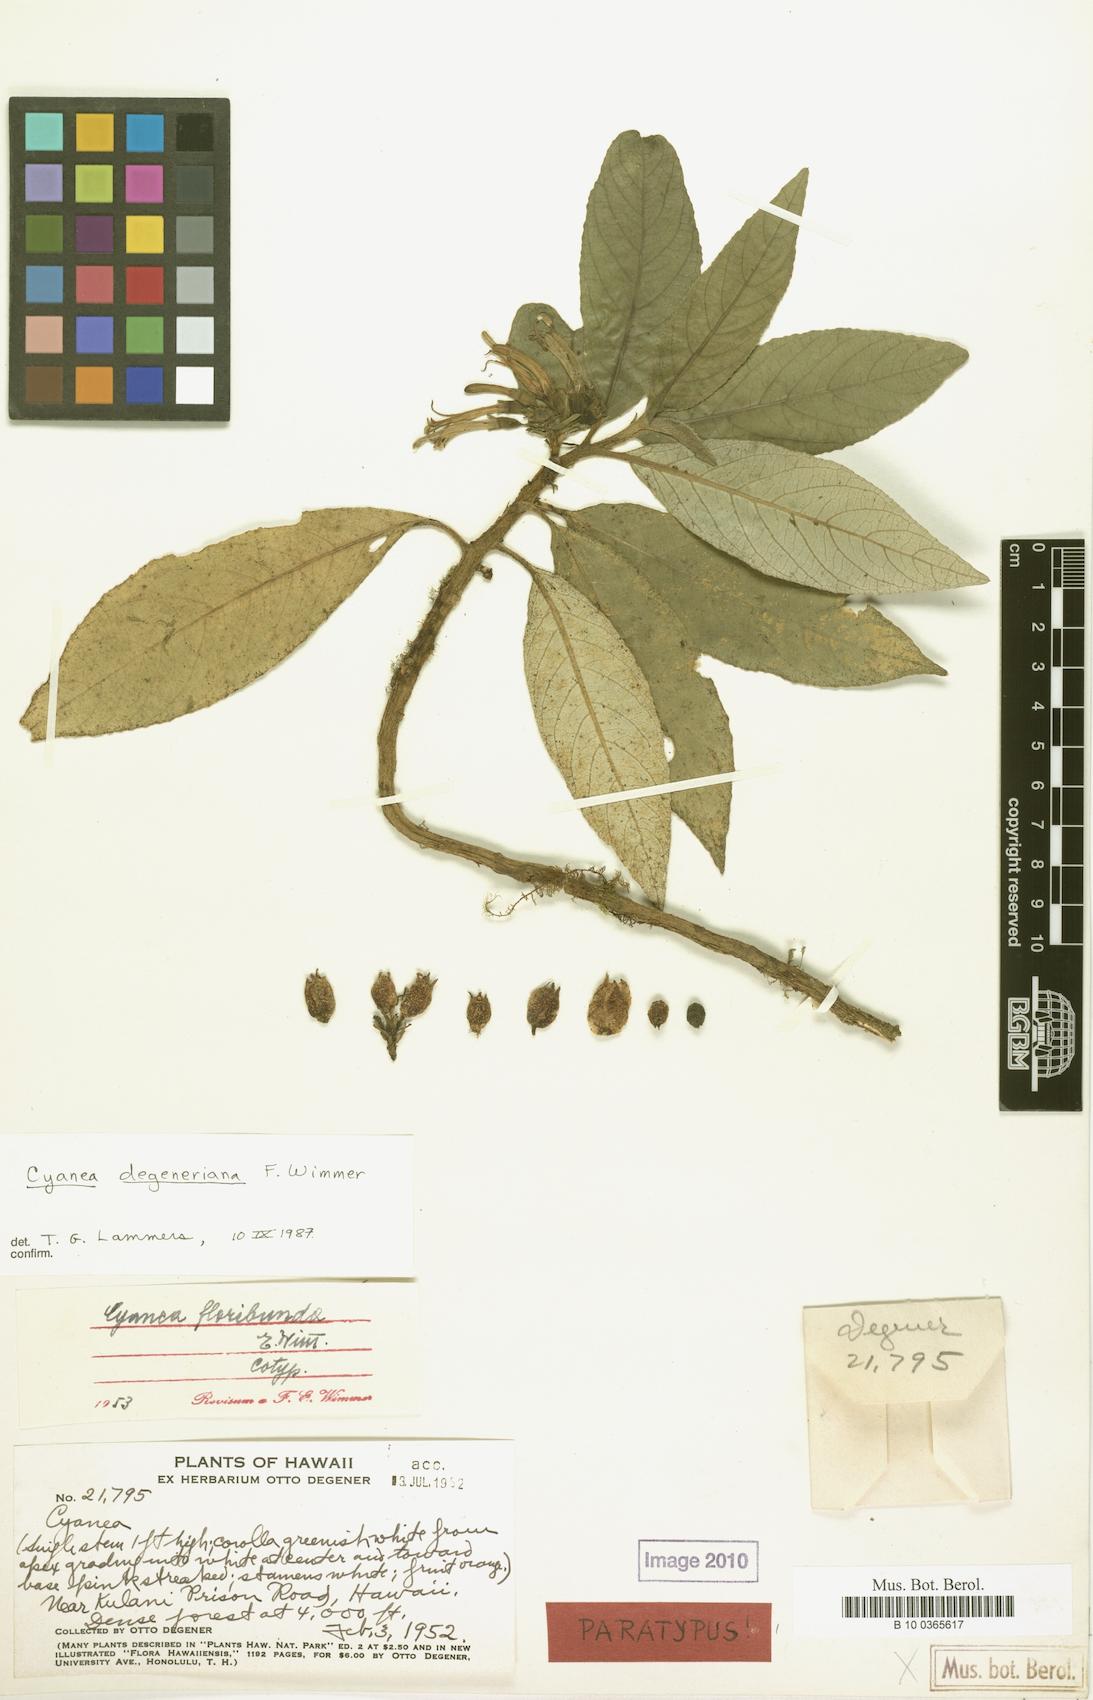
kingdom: Plantae
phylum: Tracheophyta
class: Magnoliopsida
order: Asterales
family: Campanulaceae
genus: Cyanea
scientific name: Cyanea hirtella
